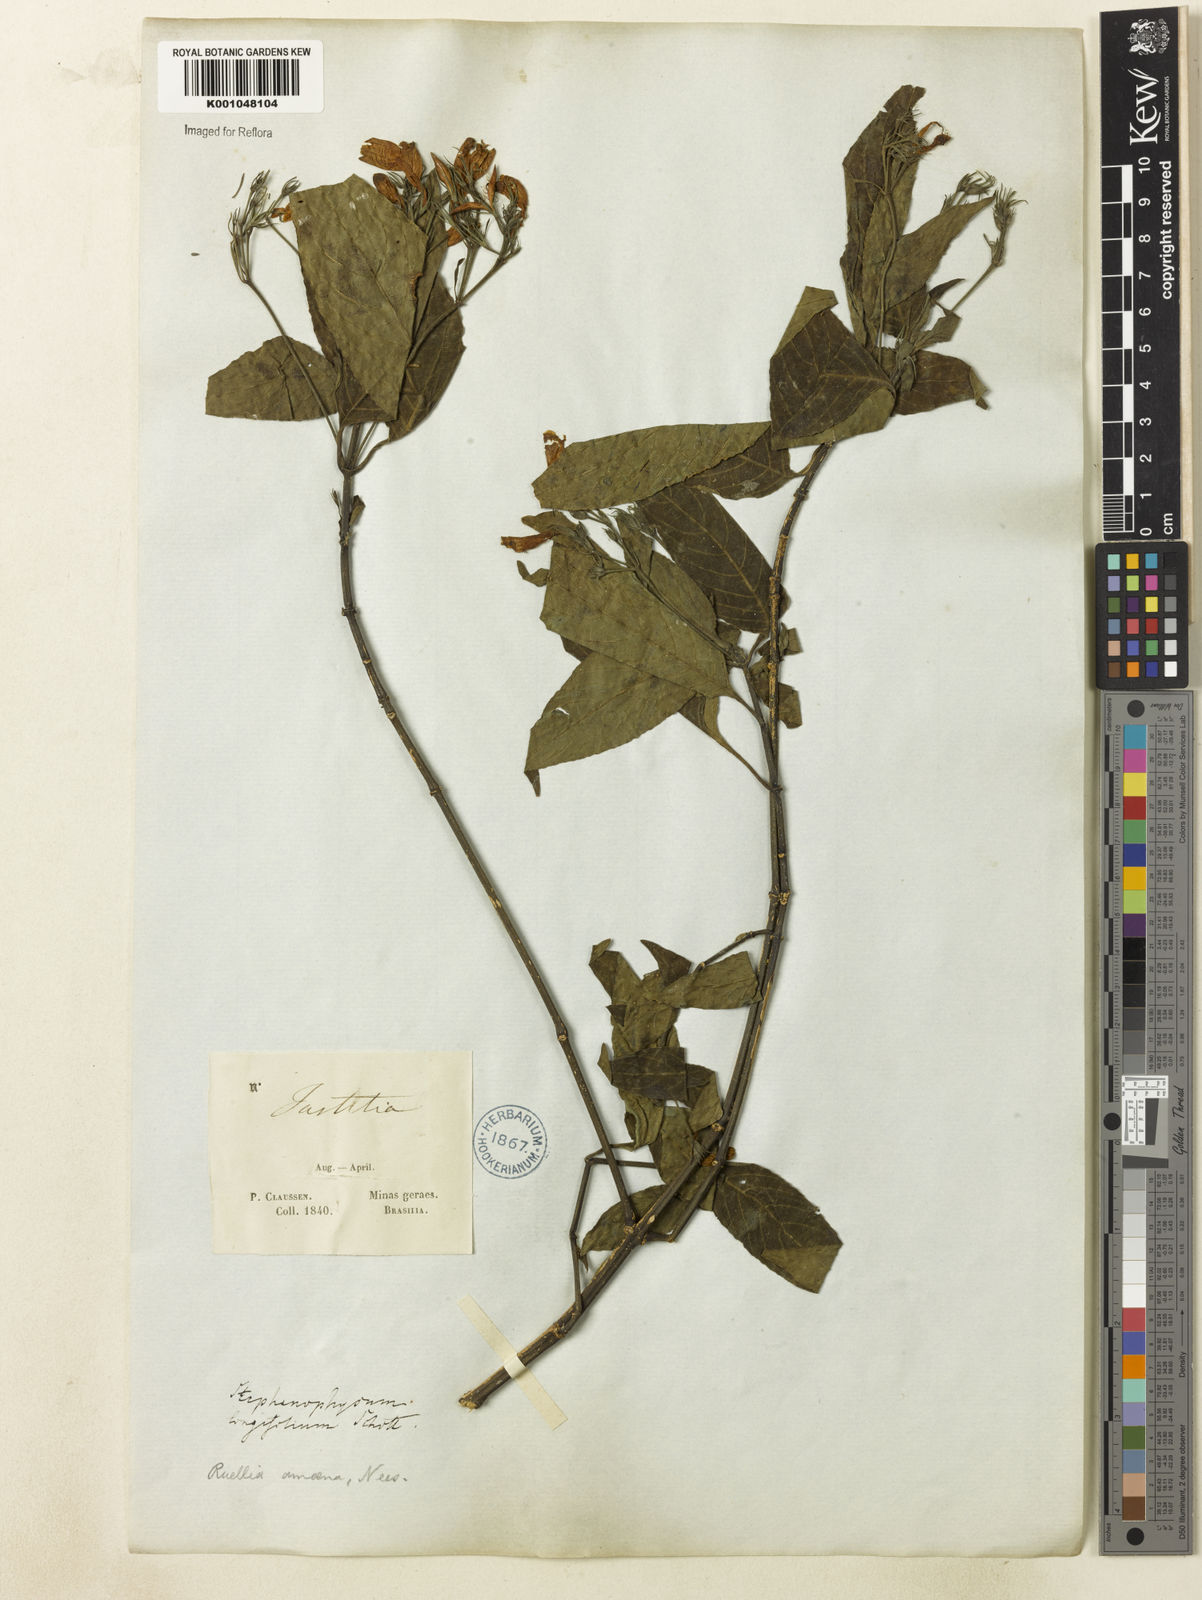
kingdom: Plantae
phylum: Tracheophyta
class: Magnoliopsida
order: Lamiales
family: Acanthaceae
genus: Ruellia
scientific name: Ruellia brevifolia
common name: Tropical wild petunia
